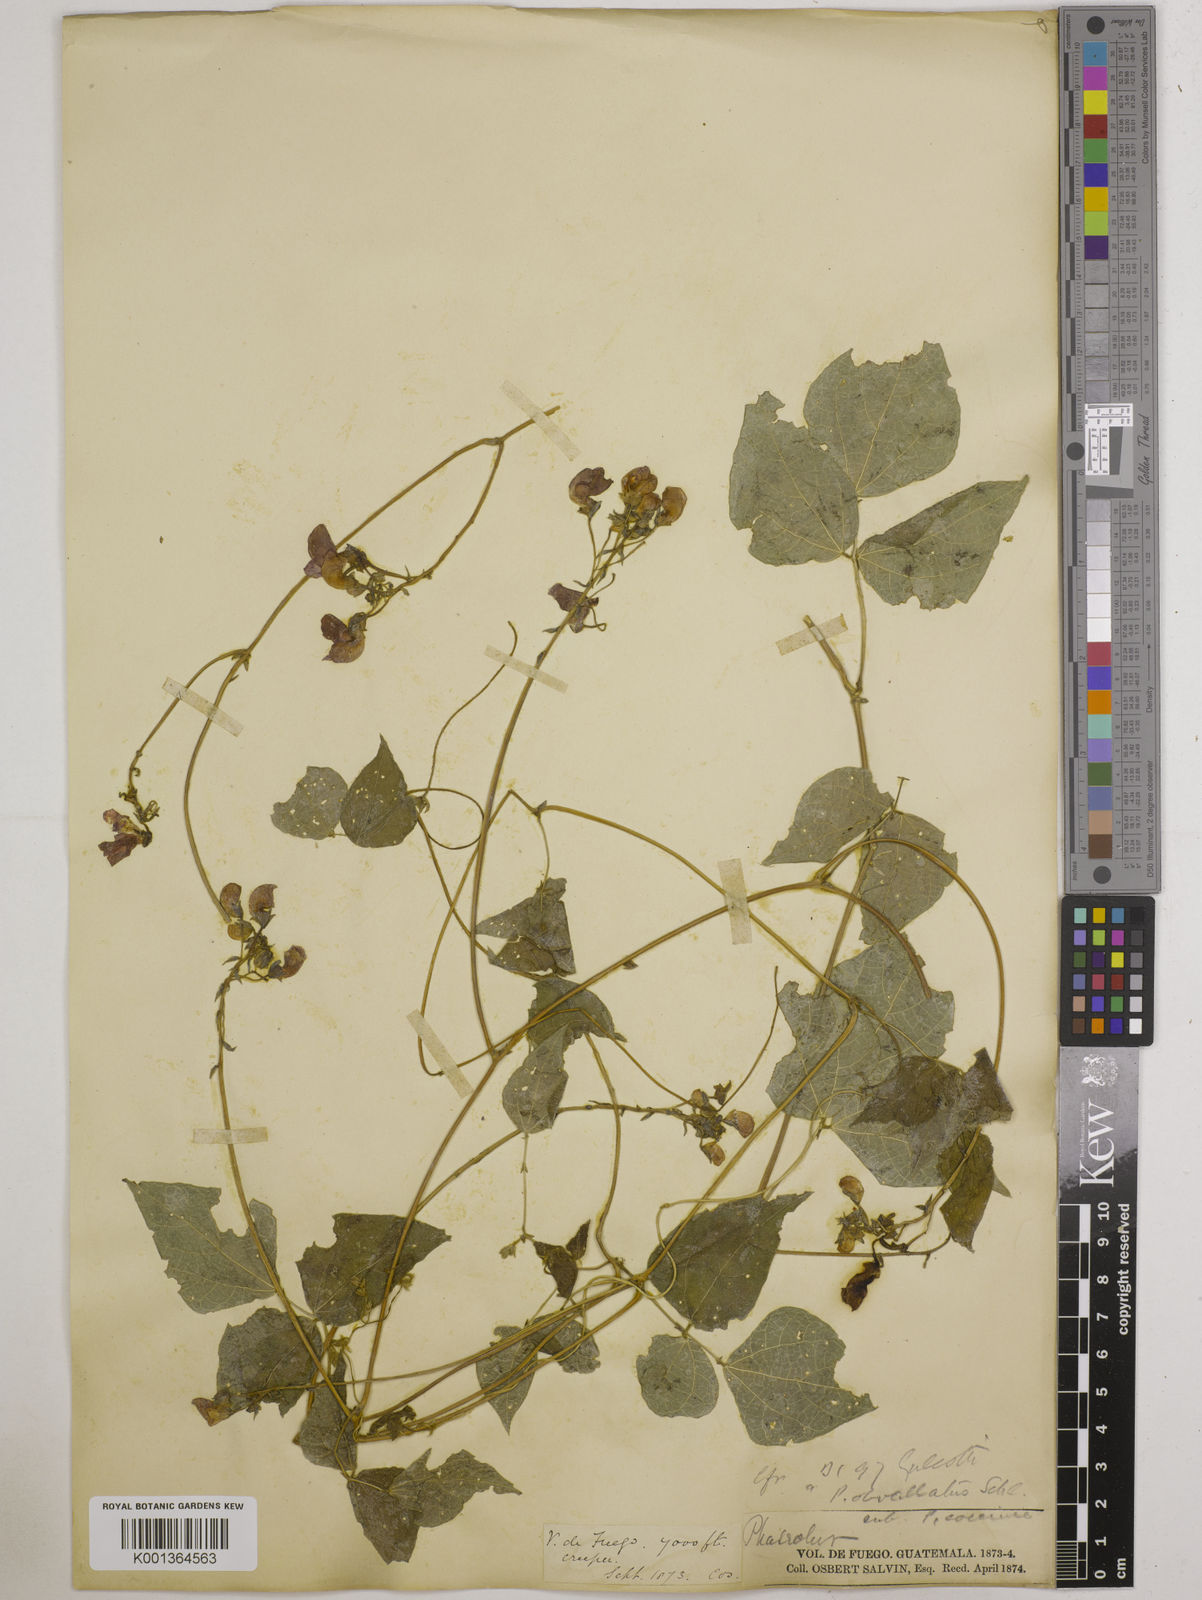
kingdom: Plantae
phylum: Tracheophyta
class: Magnoliopsida
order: Fabales
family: Fabaceae
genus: Phaseolus
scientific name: Phaseolus coccineus
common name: Runner bean
